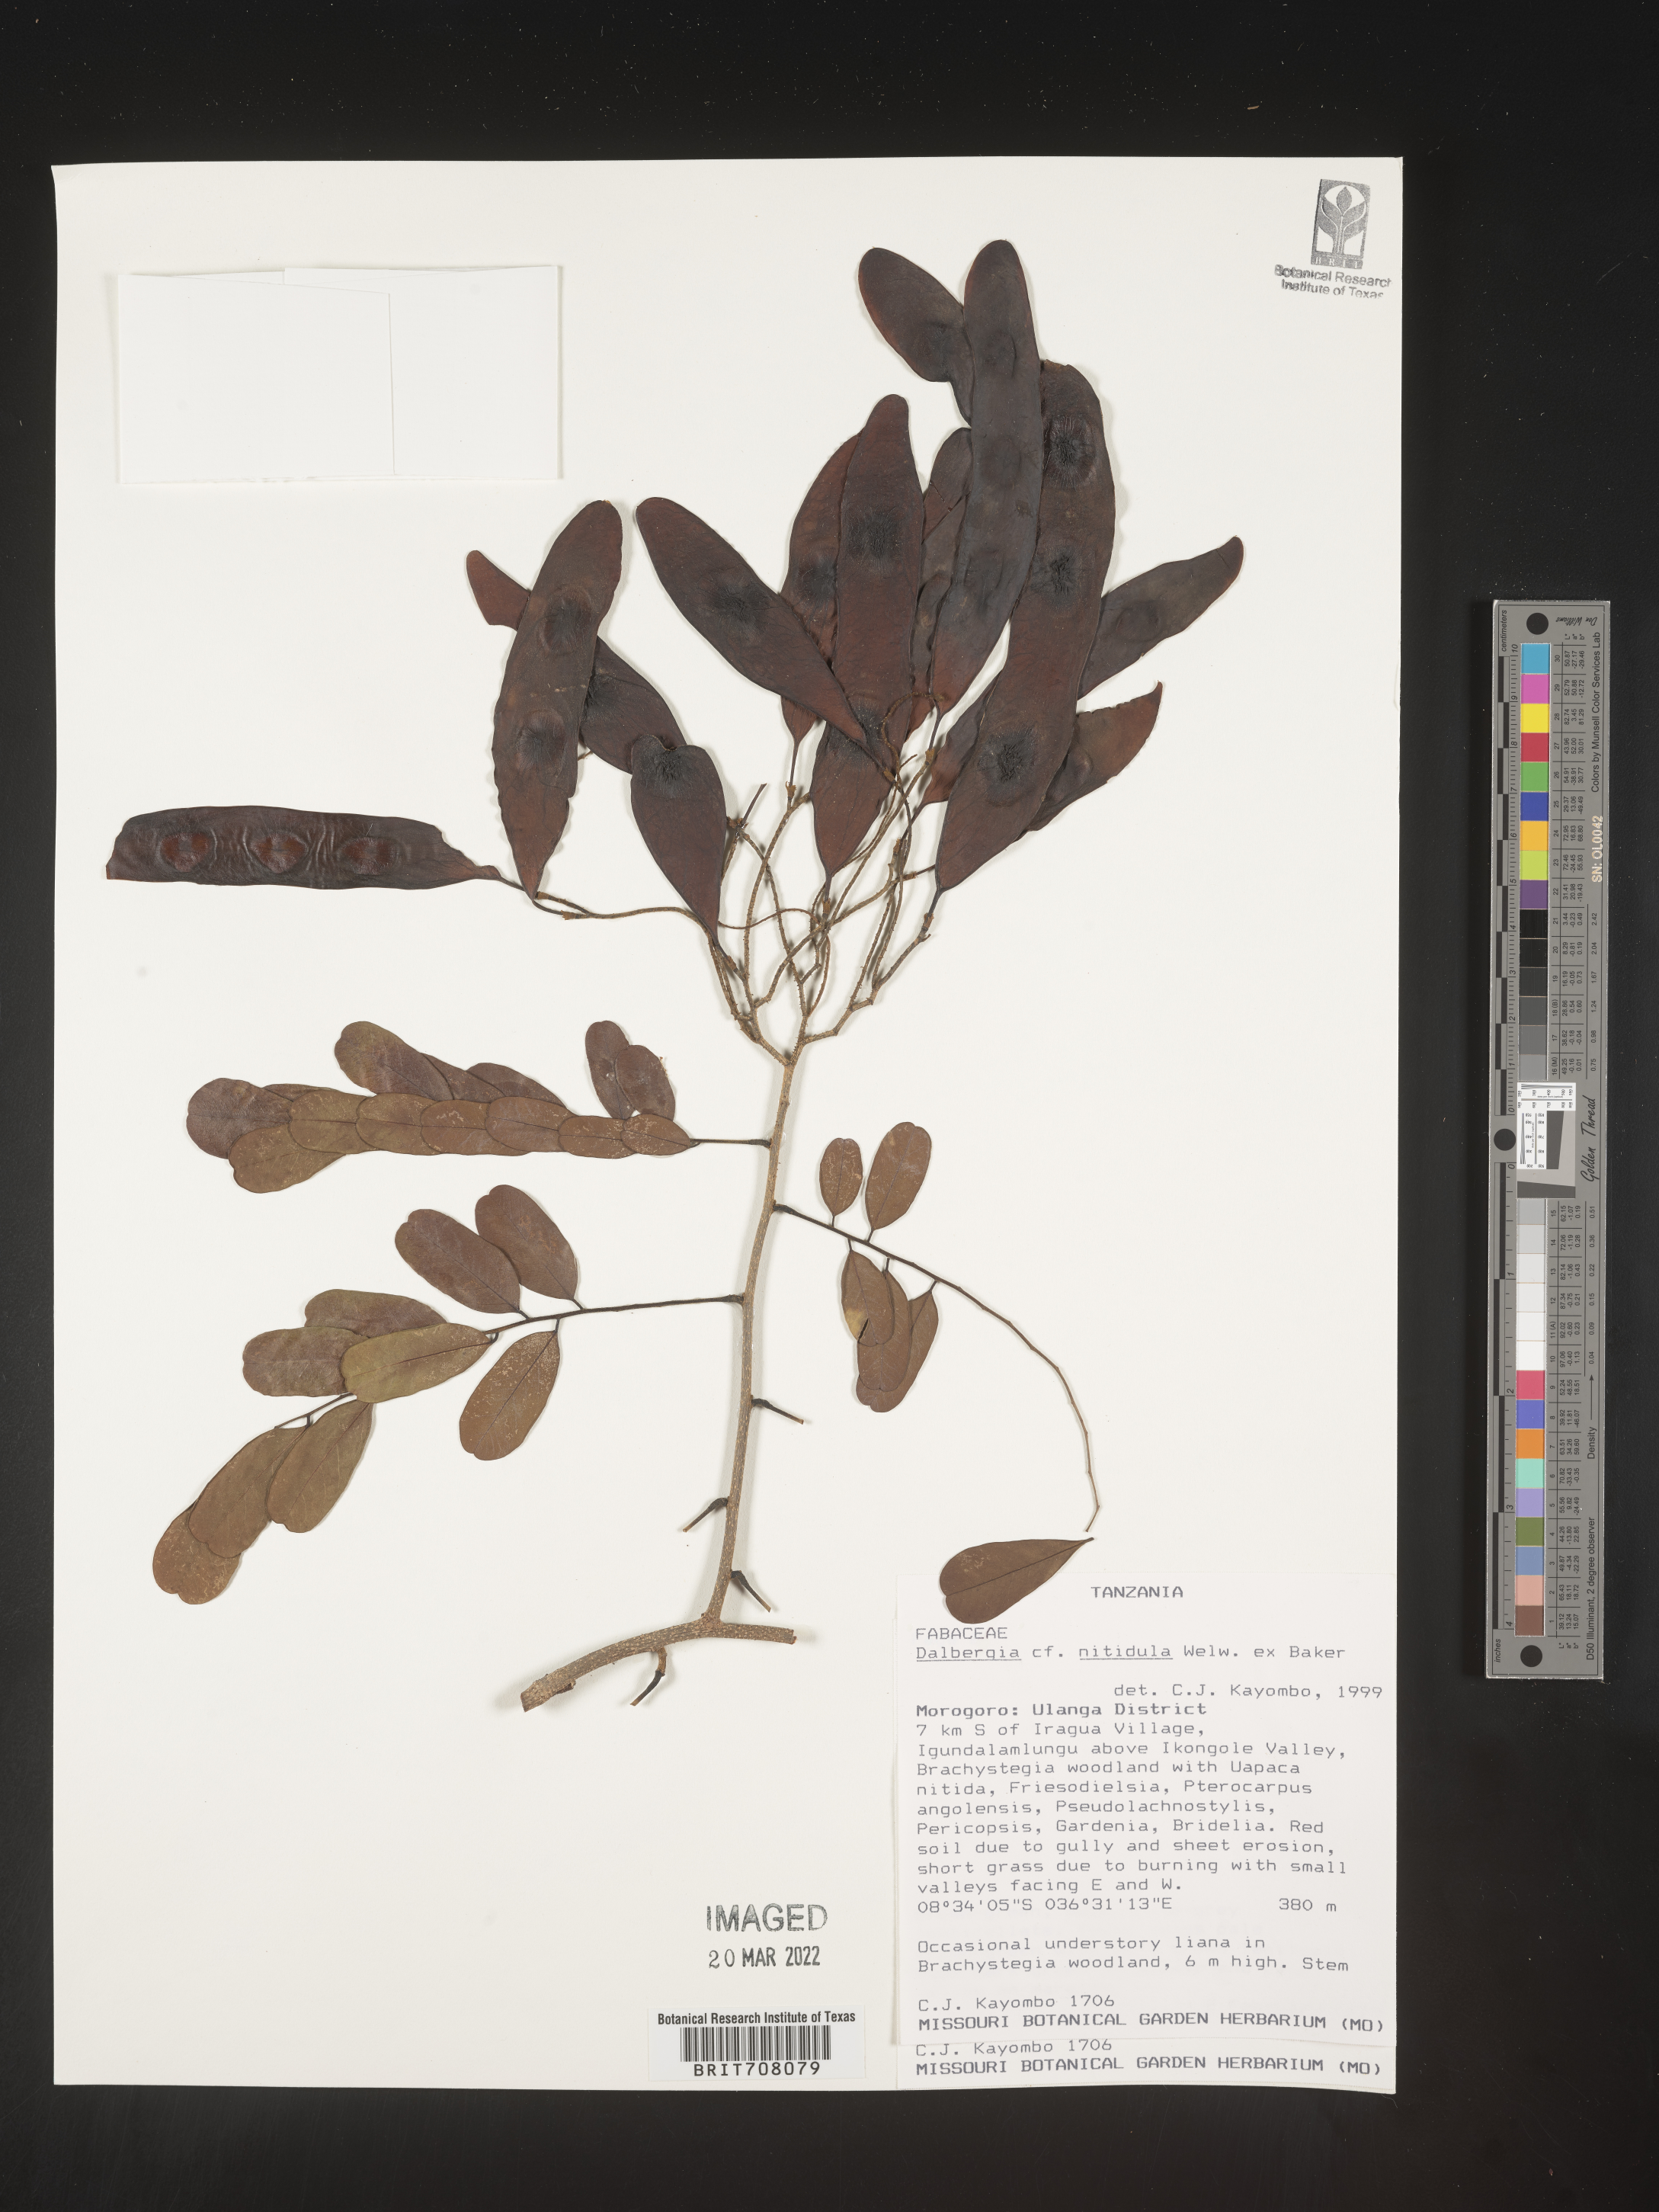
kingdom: Plantae
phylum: Tracheophyta
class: Magnoliopsida
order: Fabales
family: Fabaceae
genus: Dalbergia
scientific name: Dalbergia
